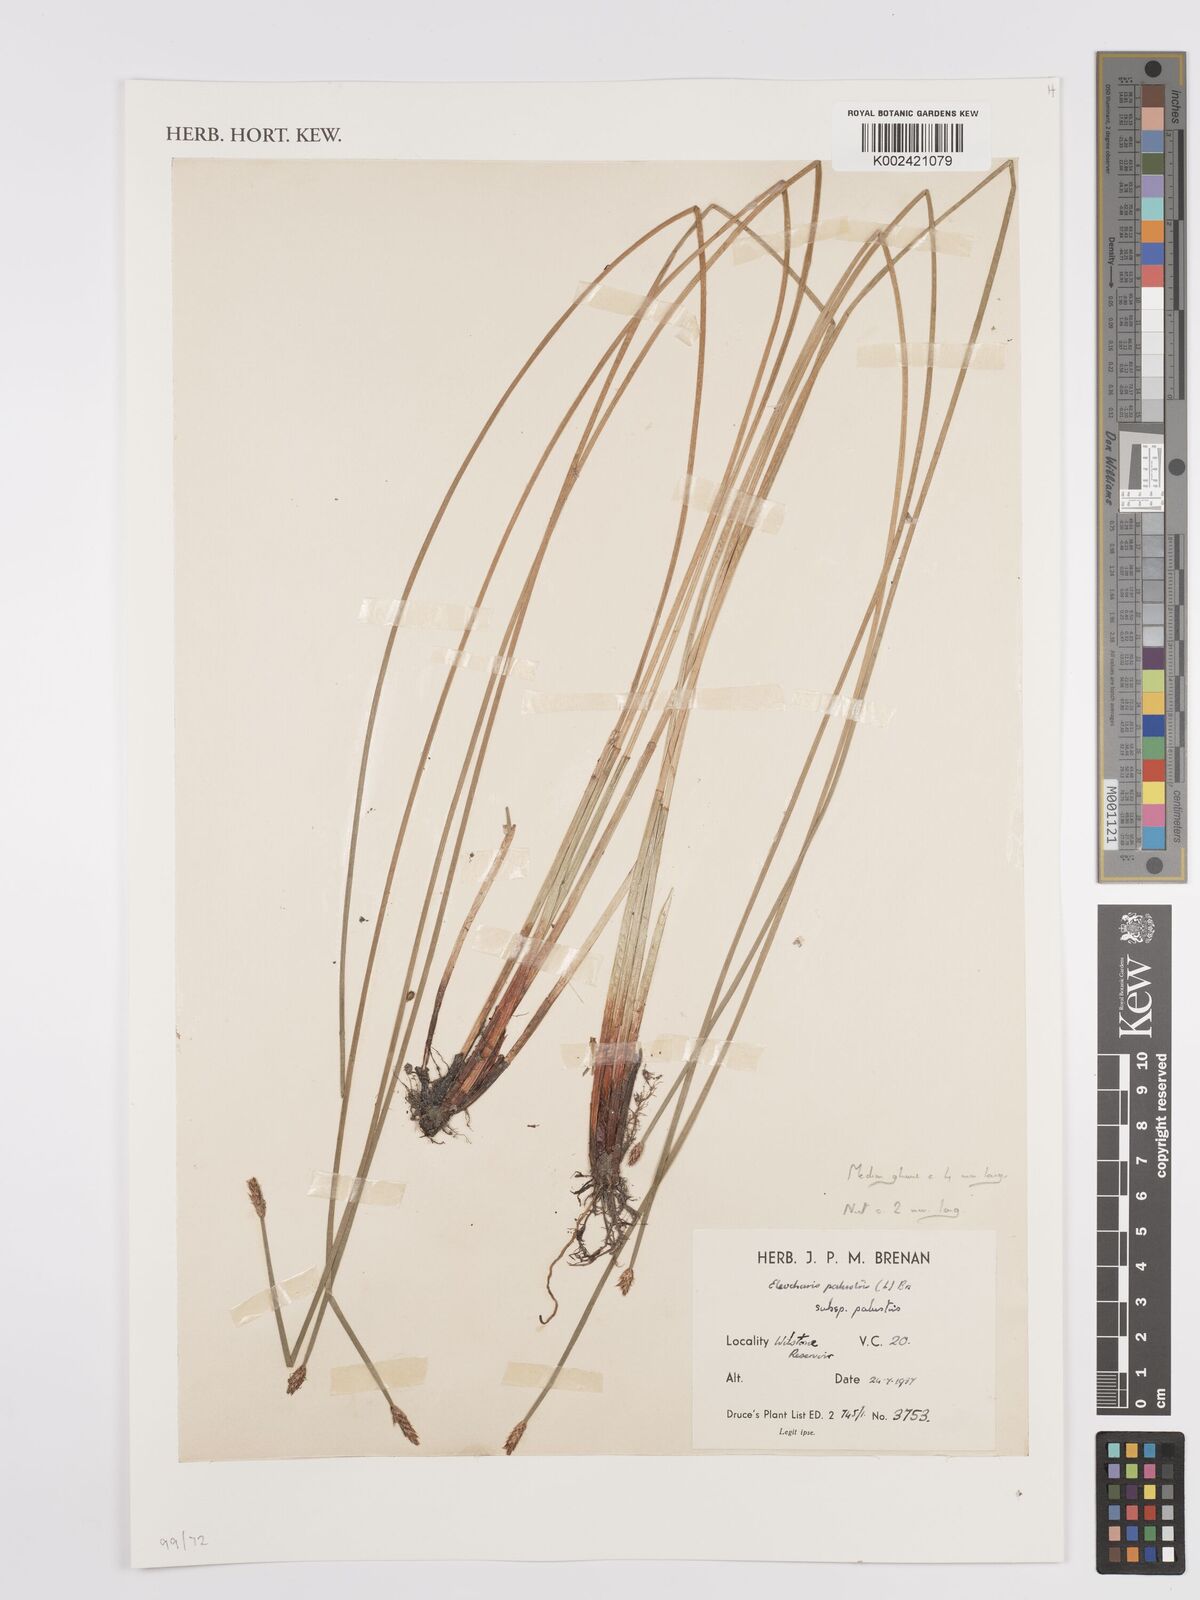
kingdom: Plantae
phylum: Tracheophyta
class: Liliopsida
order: Poales
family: Cyperaceae
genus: Eleocharis
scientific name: Eleocharis palustris
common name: Common spike-rush
